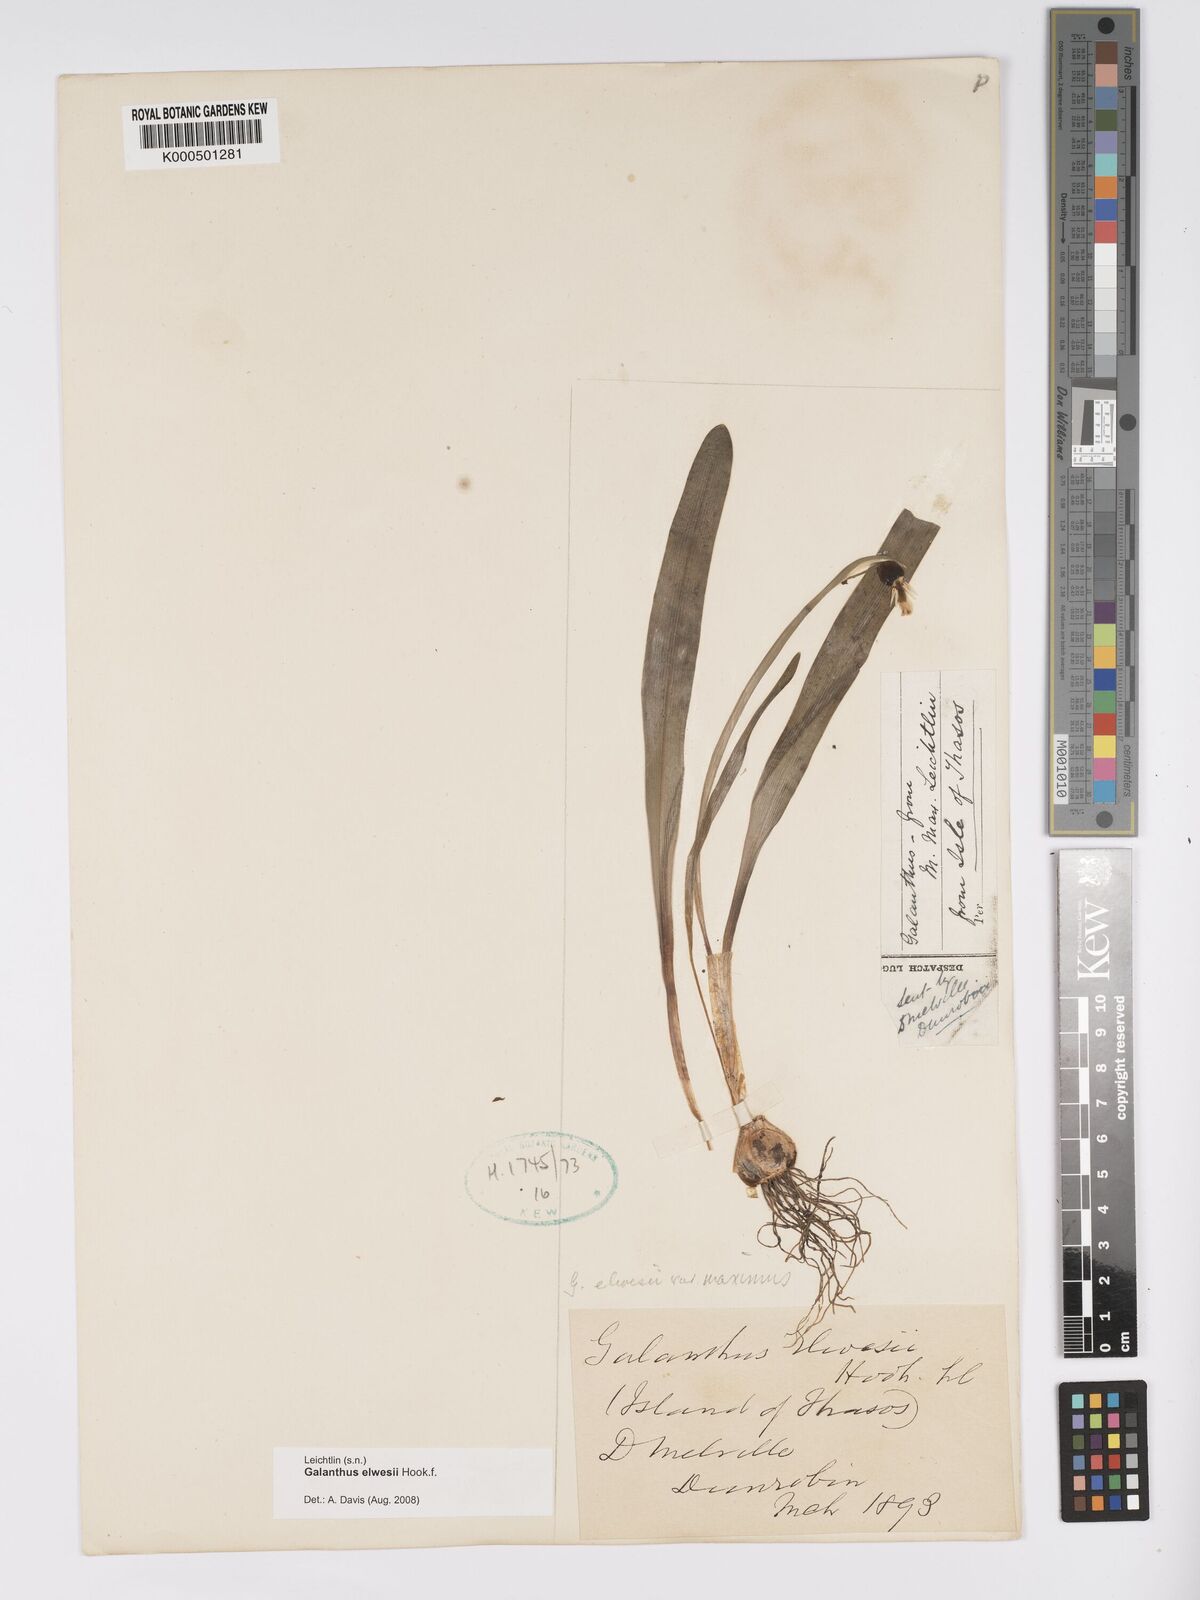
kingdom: Plantae
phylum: Tracheophyta
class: Liliopsida
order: Asparagales
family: Amaryllidaceae
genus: Galanthus
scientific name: Galanthus elwesii
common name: Greater snowdrop
